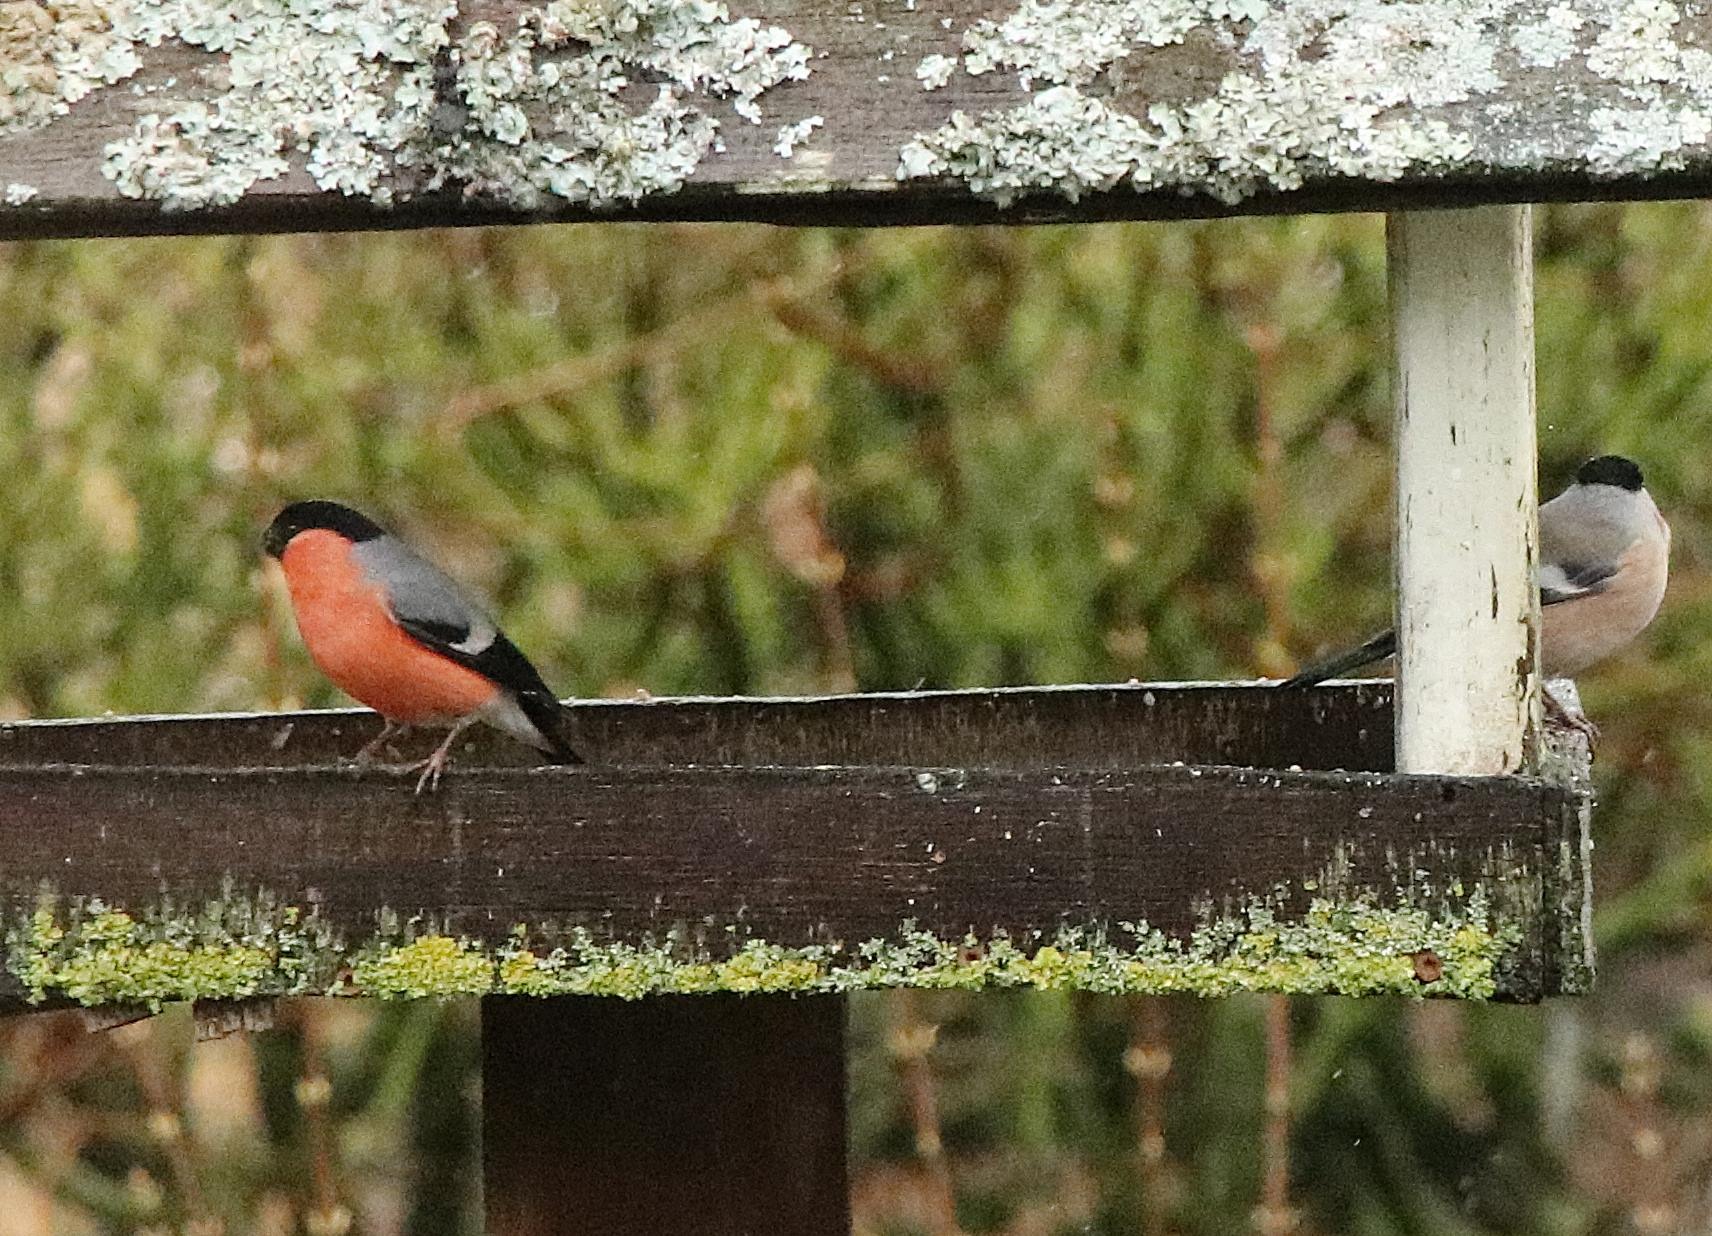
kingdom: Animalia
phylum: Chordata
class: Aves
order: Passeriformes
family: Fringillidae
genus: Pyrrhula
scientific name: Pyrrhula pyrrhula
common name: Dompap
